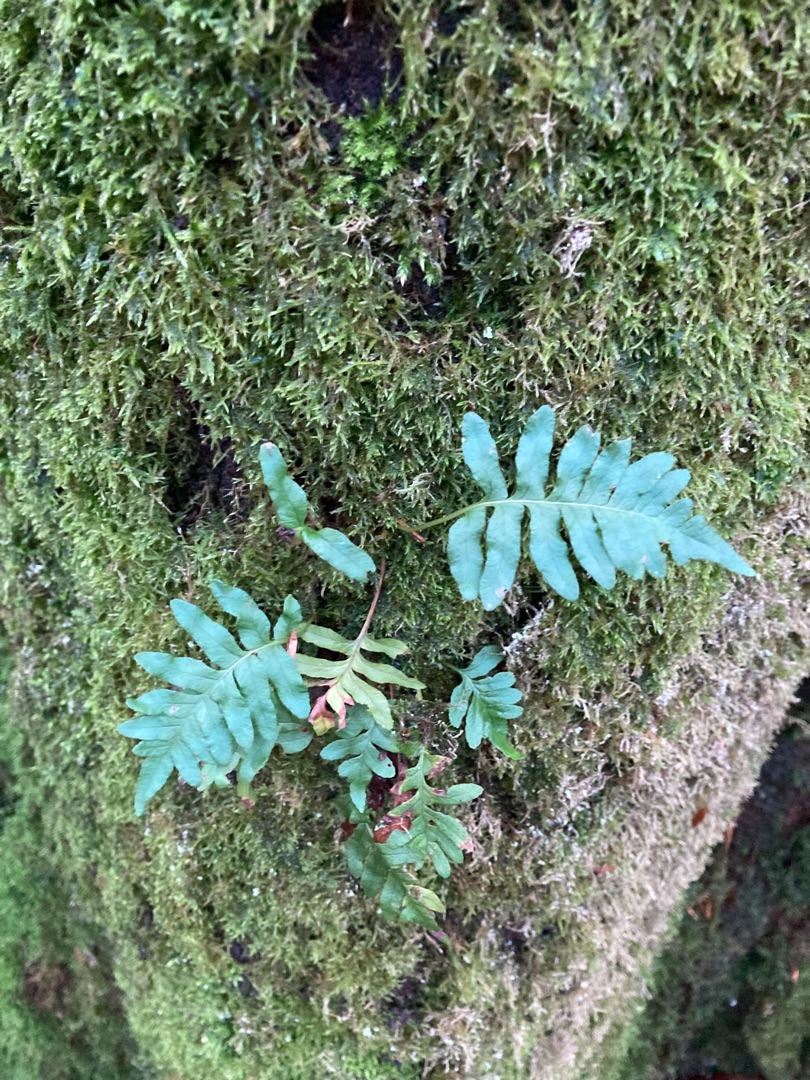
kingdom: Plantae
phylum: Tracheophyta
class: Polypodiopsida
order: Polypodiales
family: Polypodiaceae
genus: Polypodium
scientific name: Polypodium vulgare
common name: Almindelig engelsød
